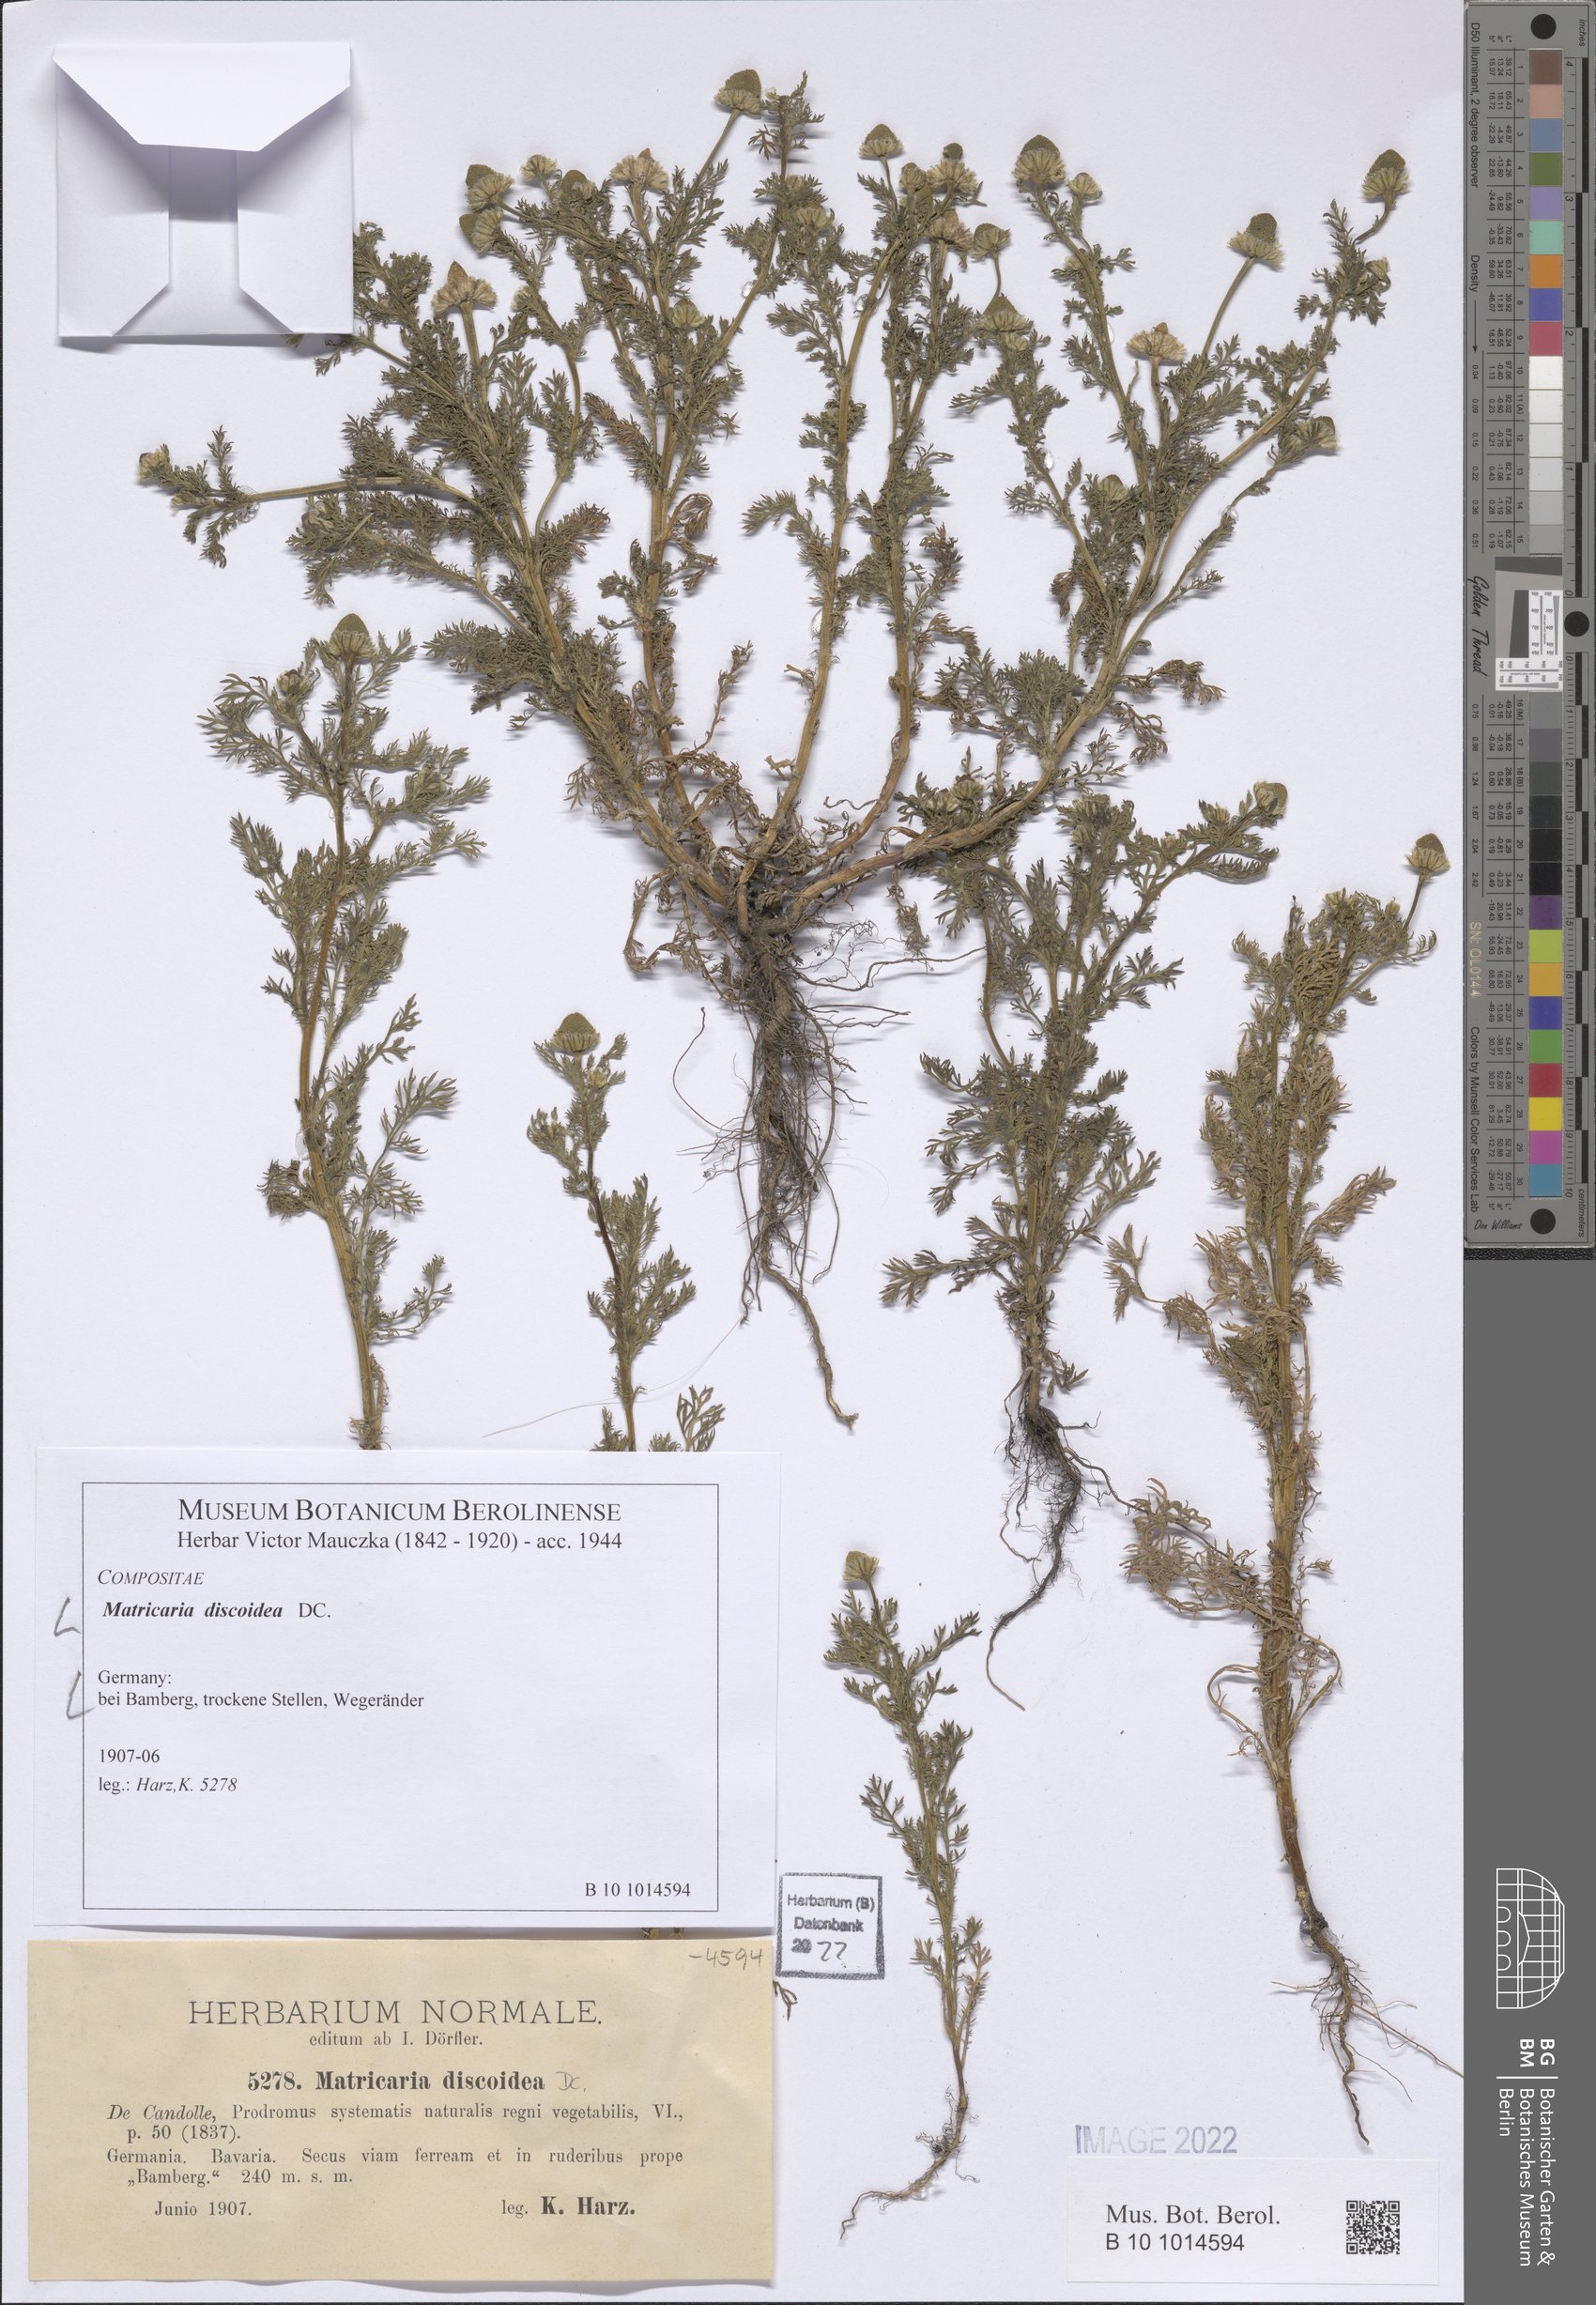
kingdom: Plantae
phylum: Tracheophyta
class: Magnoliopsida
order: Asterales
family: Asteraceae
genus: Matricaria
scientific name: Matricaria discoidea
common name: Disc mayweed
